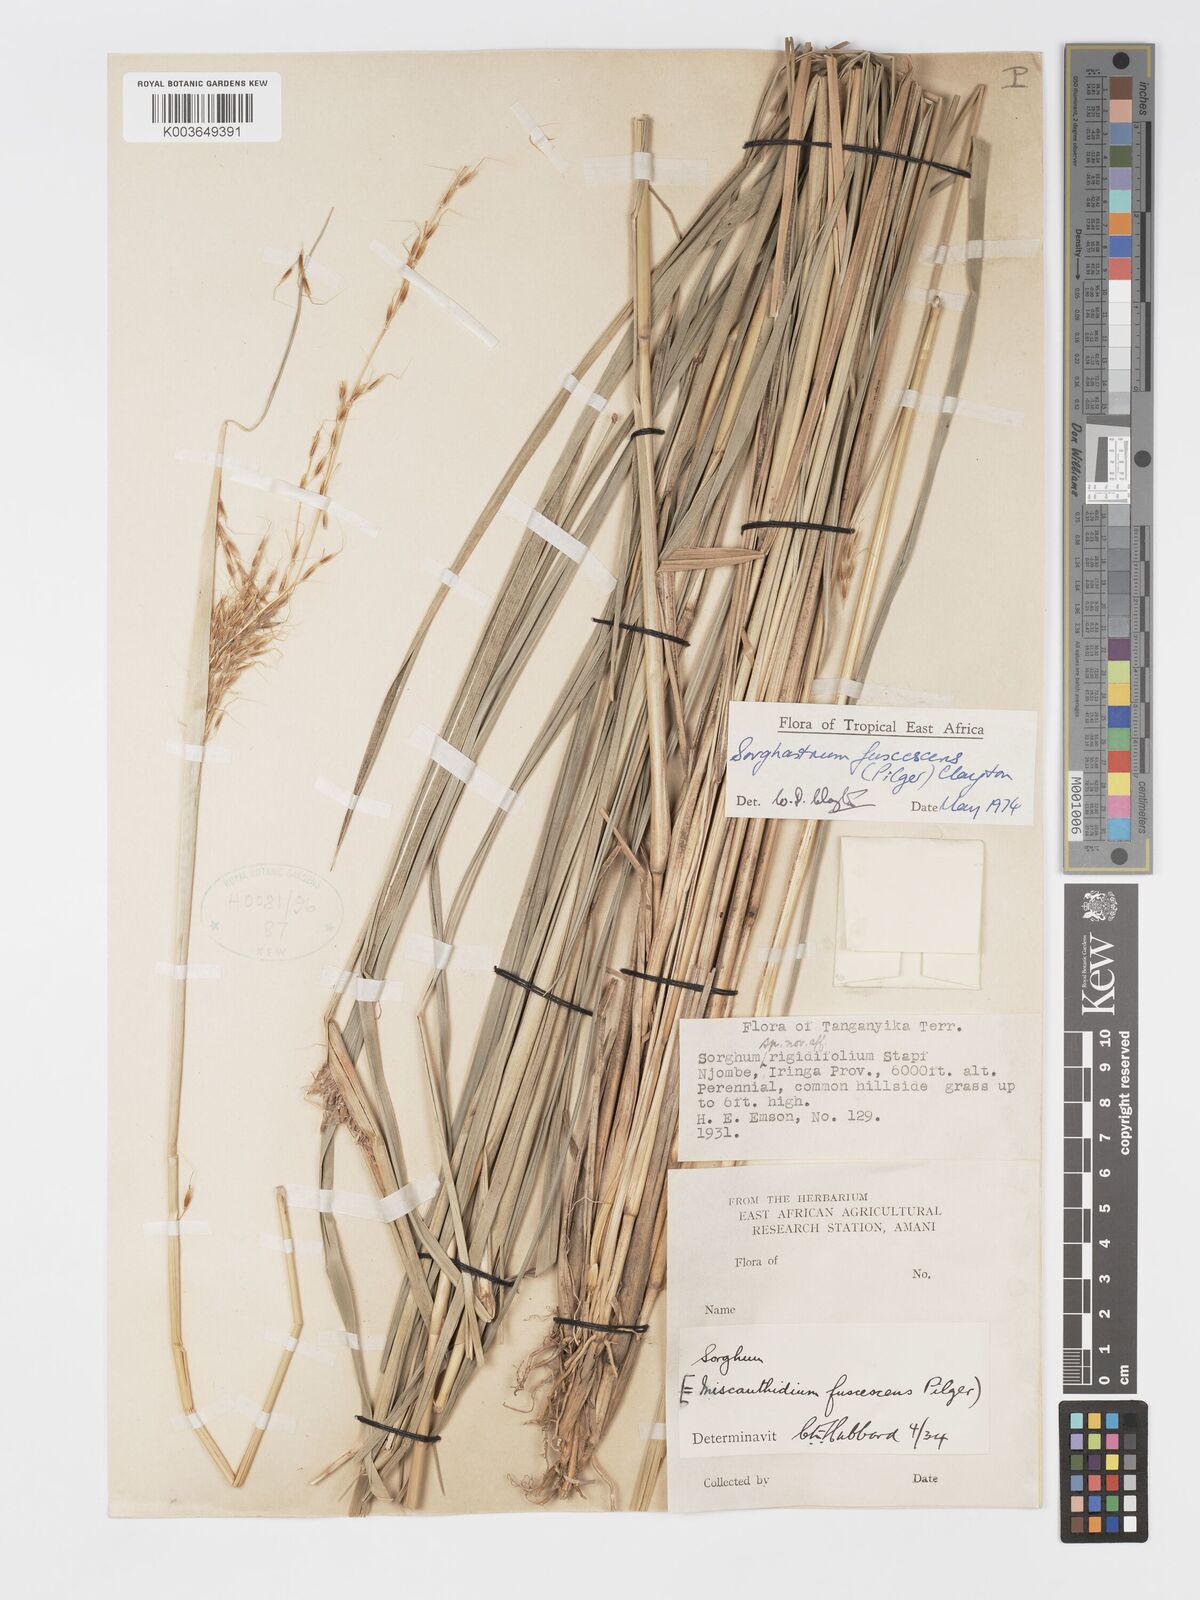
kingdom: Plantae
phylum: Tracheophyta
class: Liliopsida
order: Poales
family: Poaceae
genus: Sorghastrum
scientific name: Sorghastrum fuscescens
